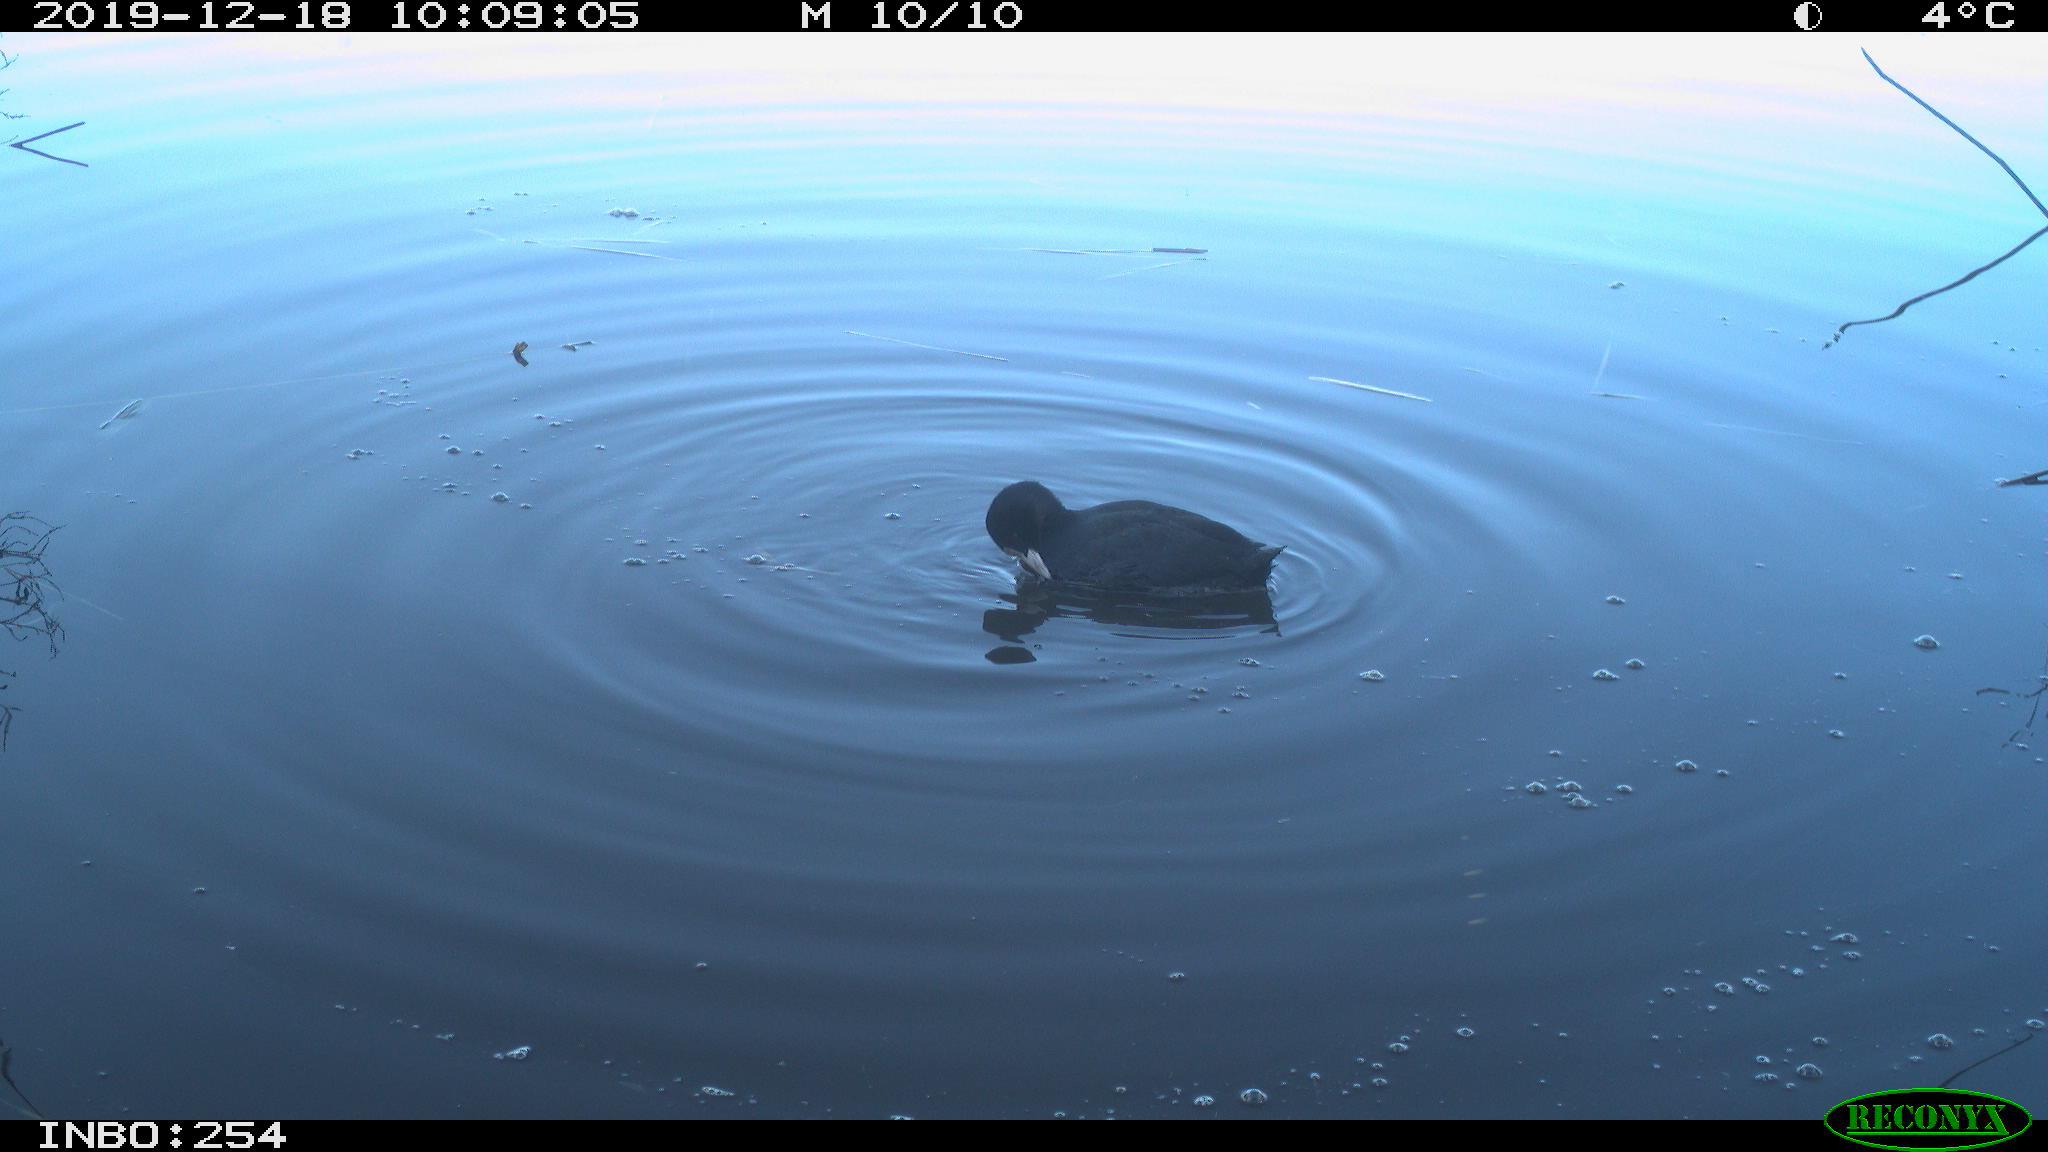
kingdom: Animalia
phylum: Chordata
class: Aves
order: Gruiformes
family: Rallidae
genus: Fulica
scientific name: Fulica atra
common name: Eurasian coot
